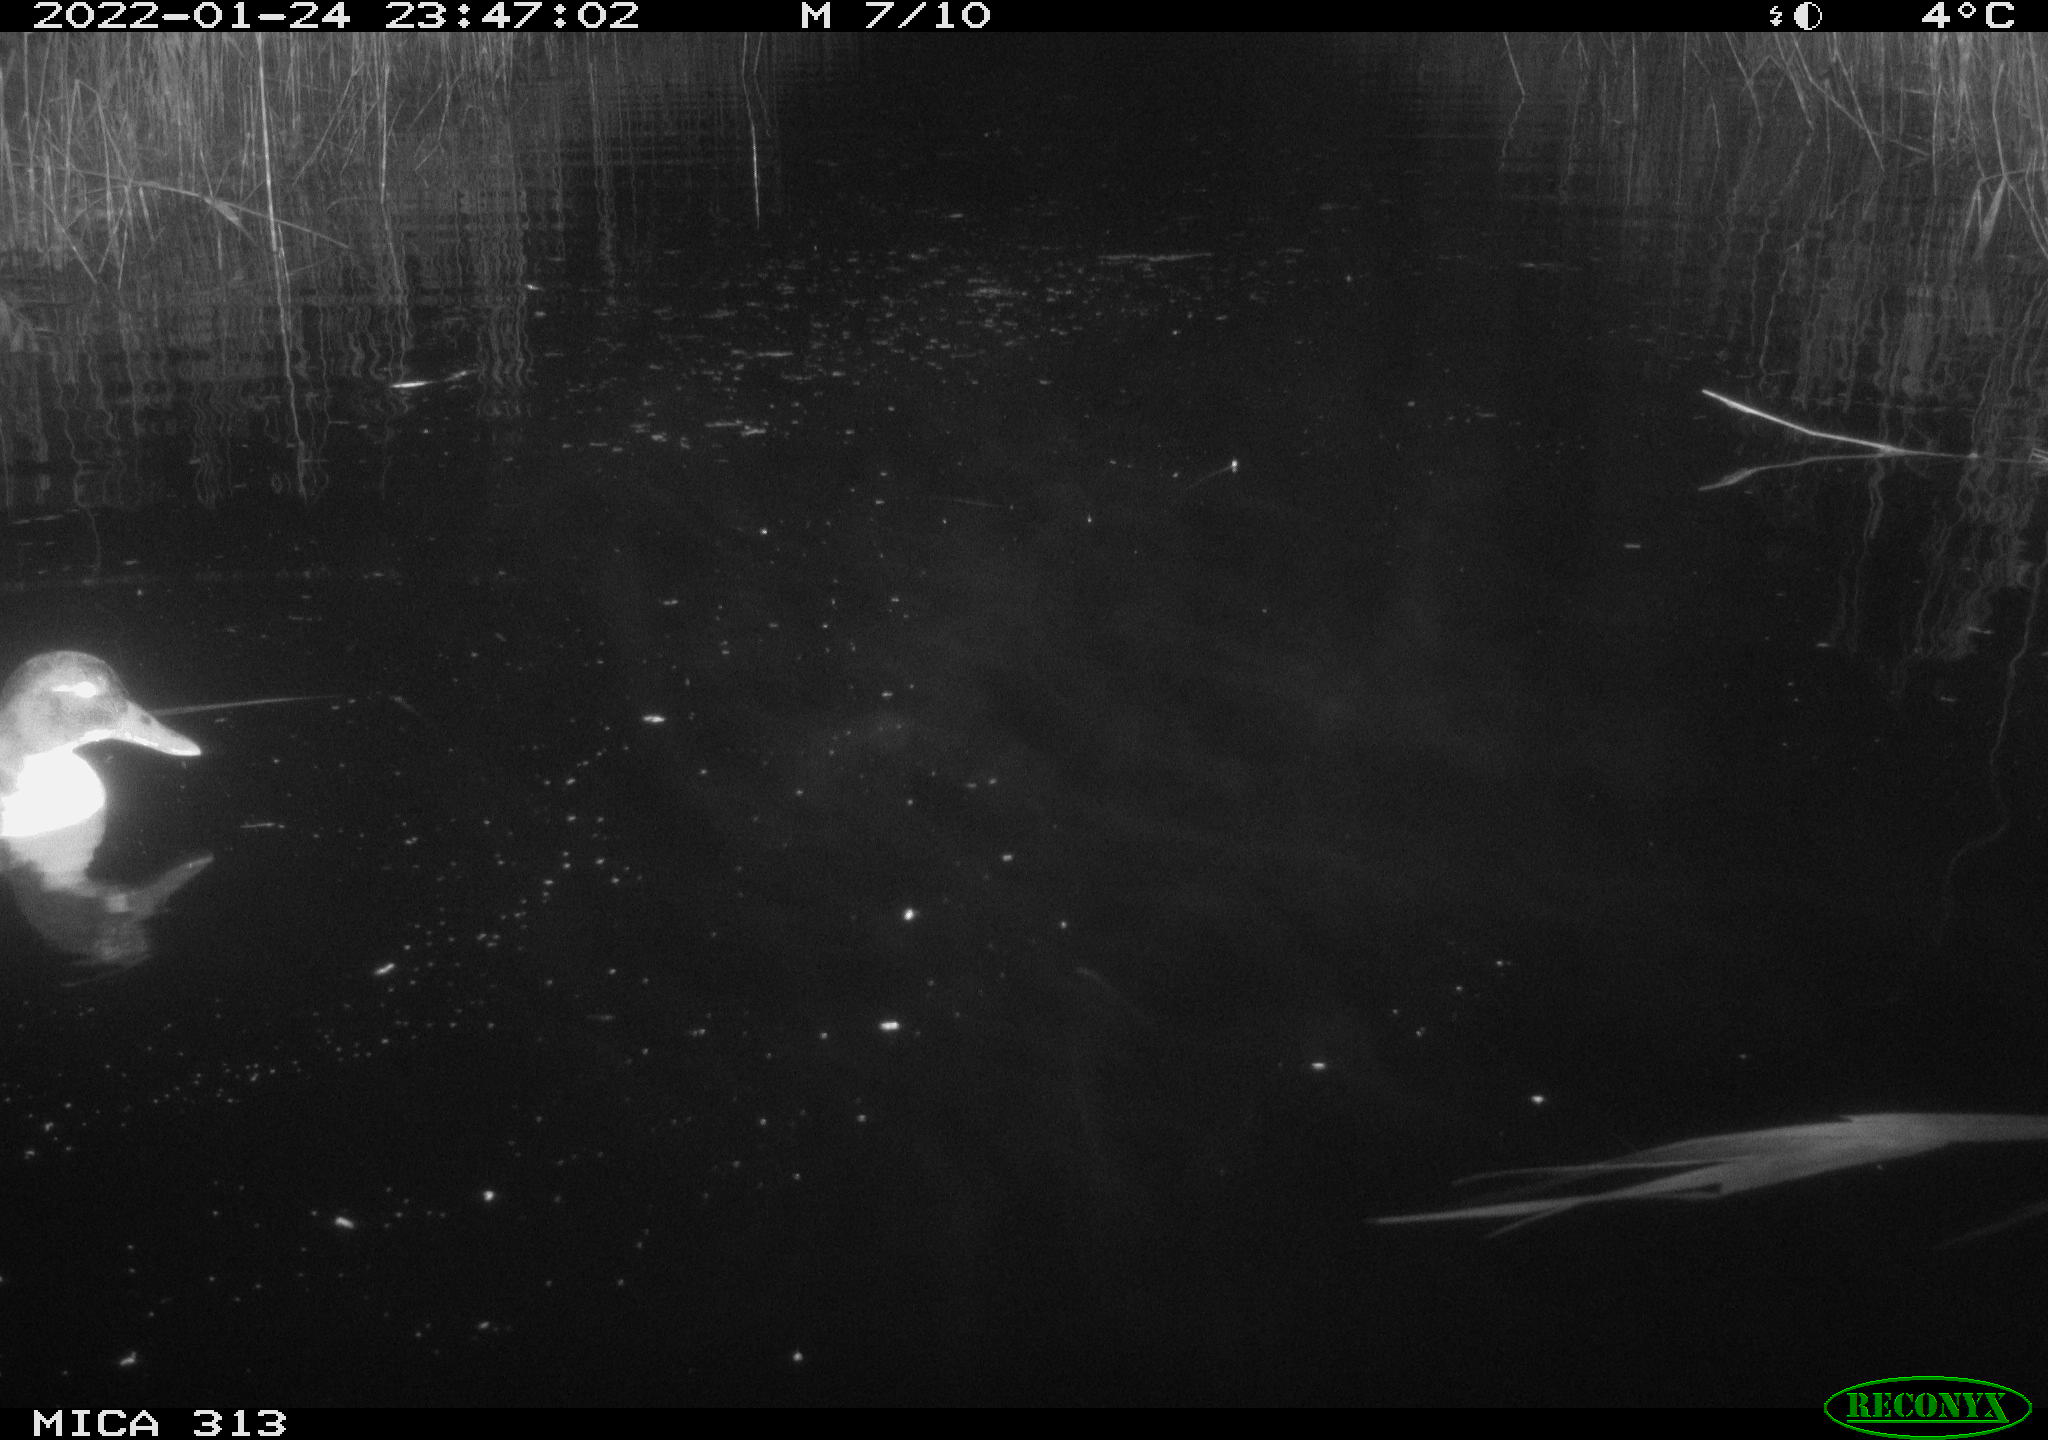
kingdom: Animalia
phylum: Chordata
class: Aves
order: Anseriformes
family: Anatidae
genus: Anas
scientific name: Anas
